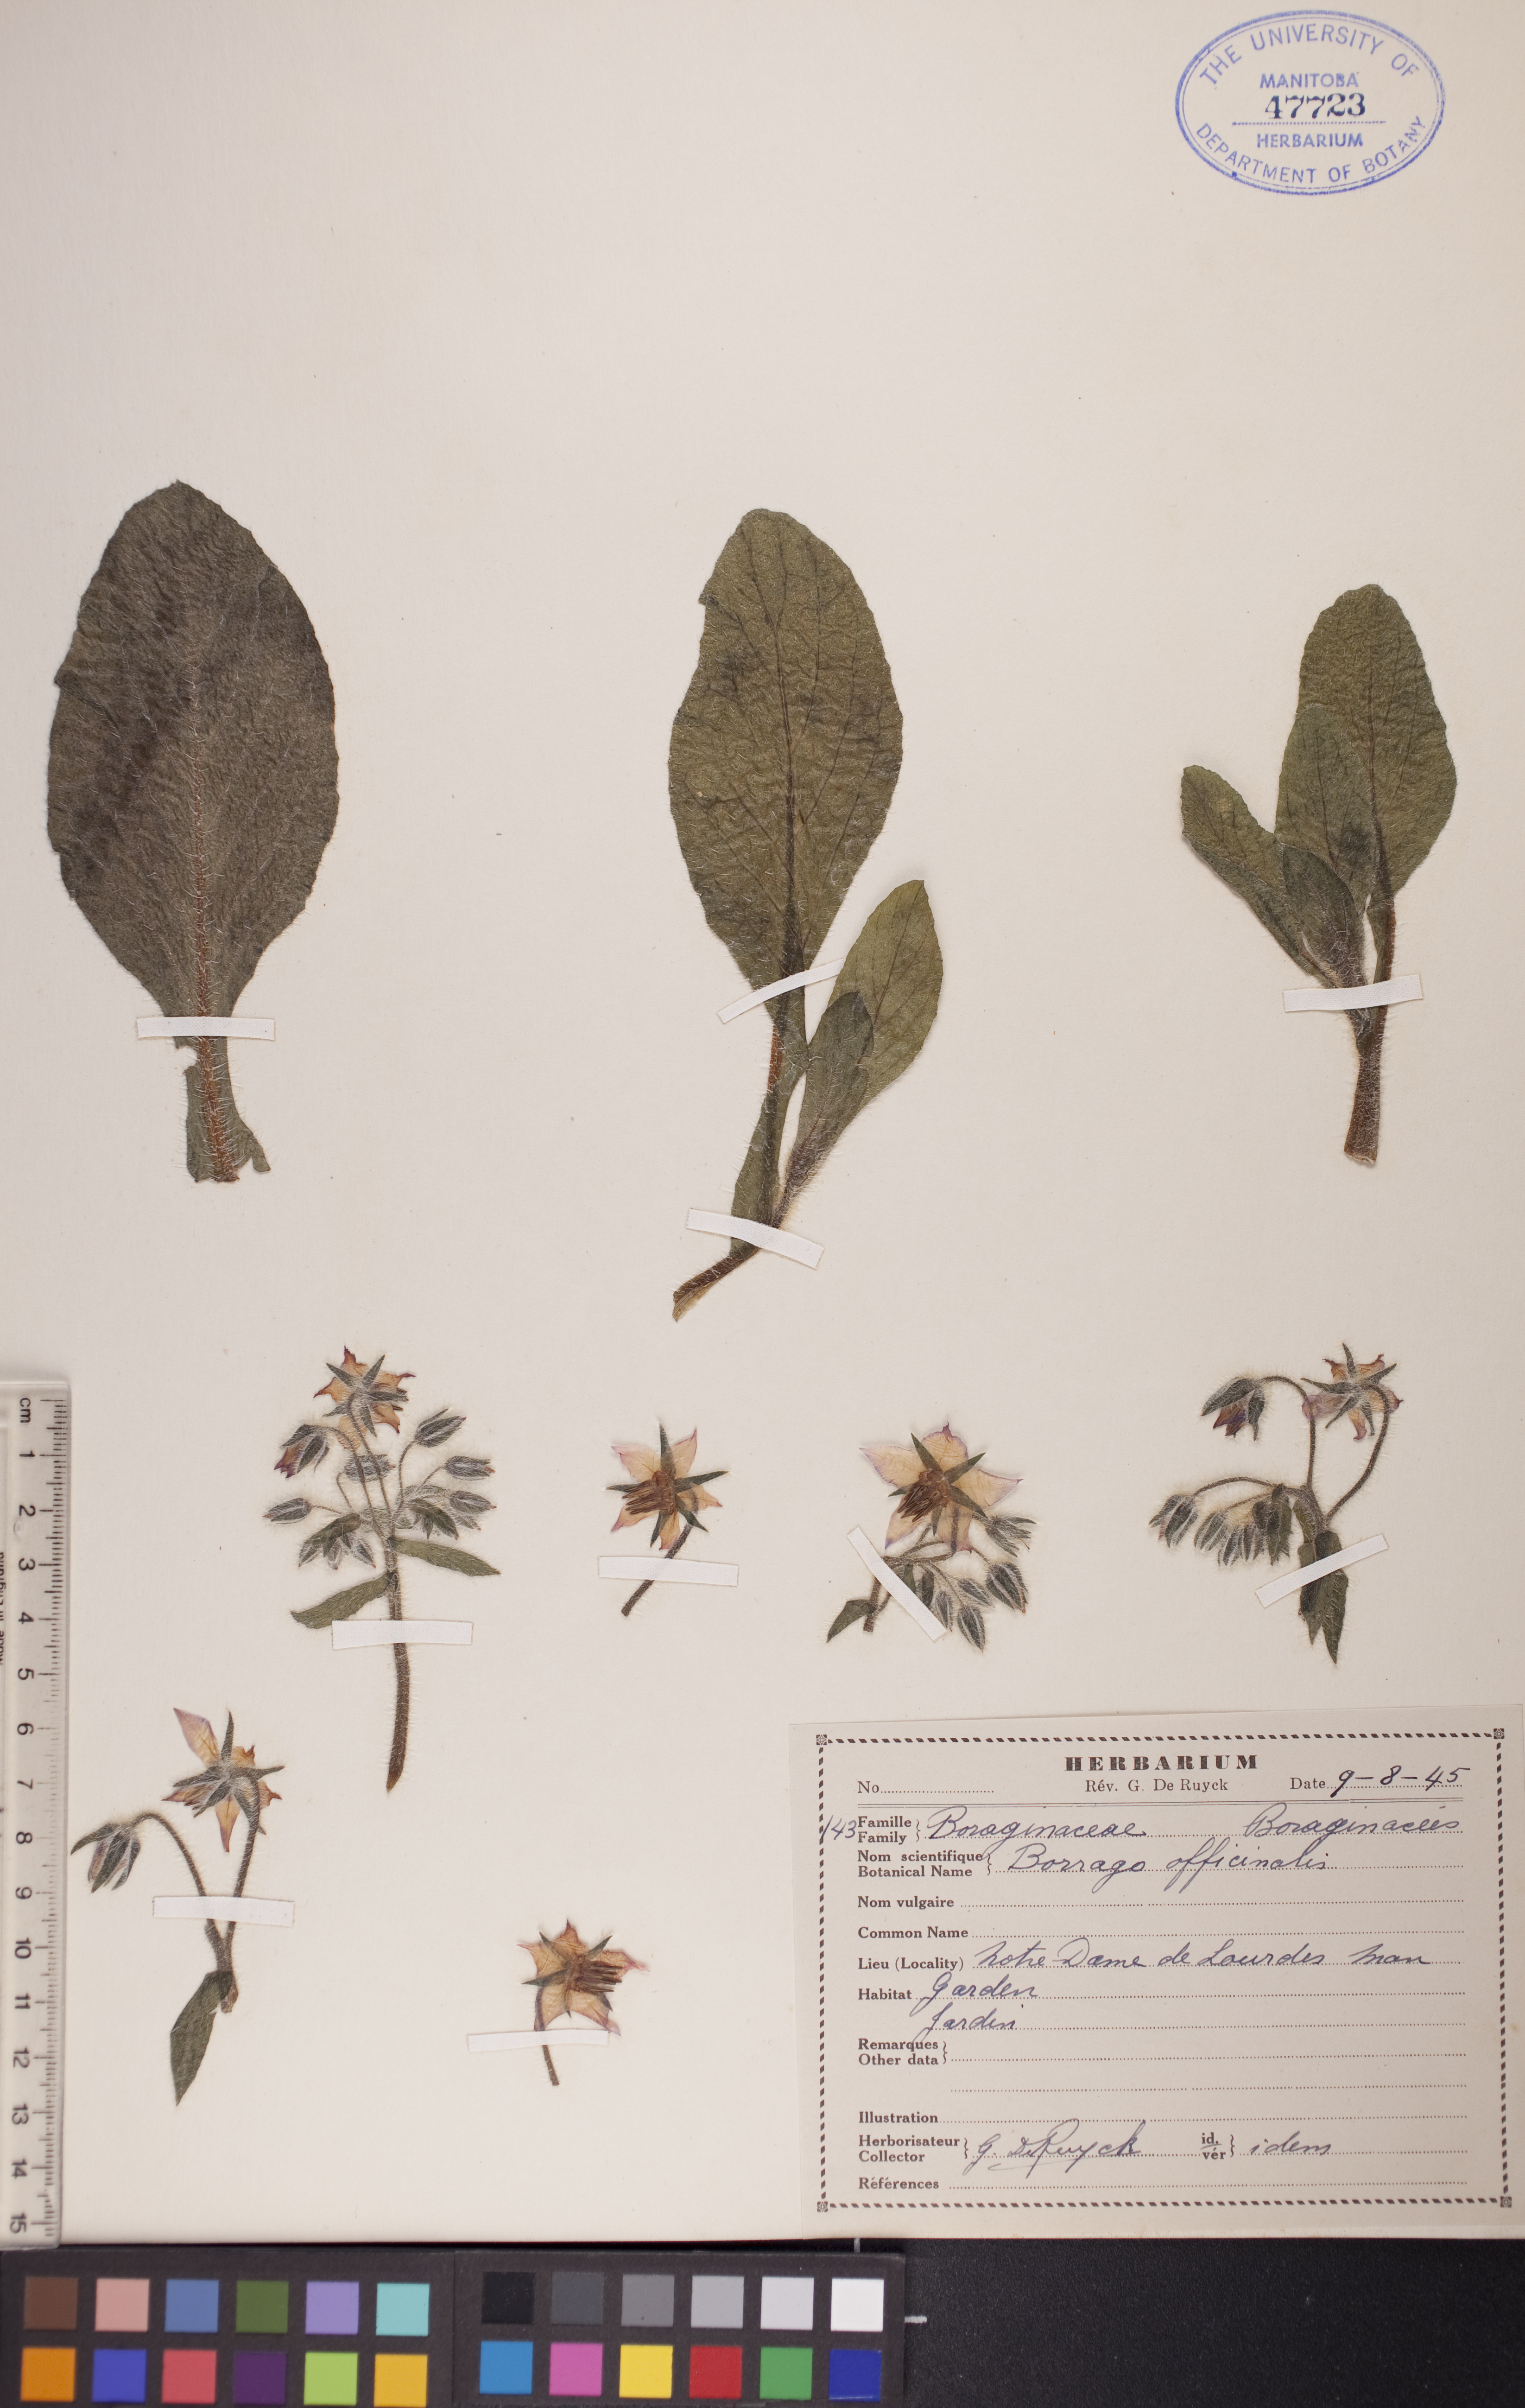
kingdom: Plantae
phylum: Tracheophyta
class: Magnoliopsida
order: Boraginales
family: Boraginaceae
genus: Borago
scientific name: Borago officinalis
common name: Borage
